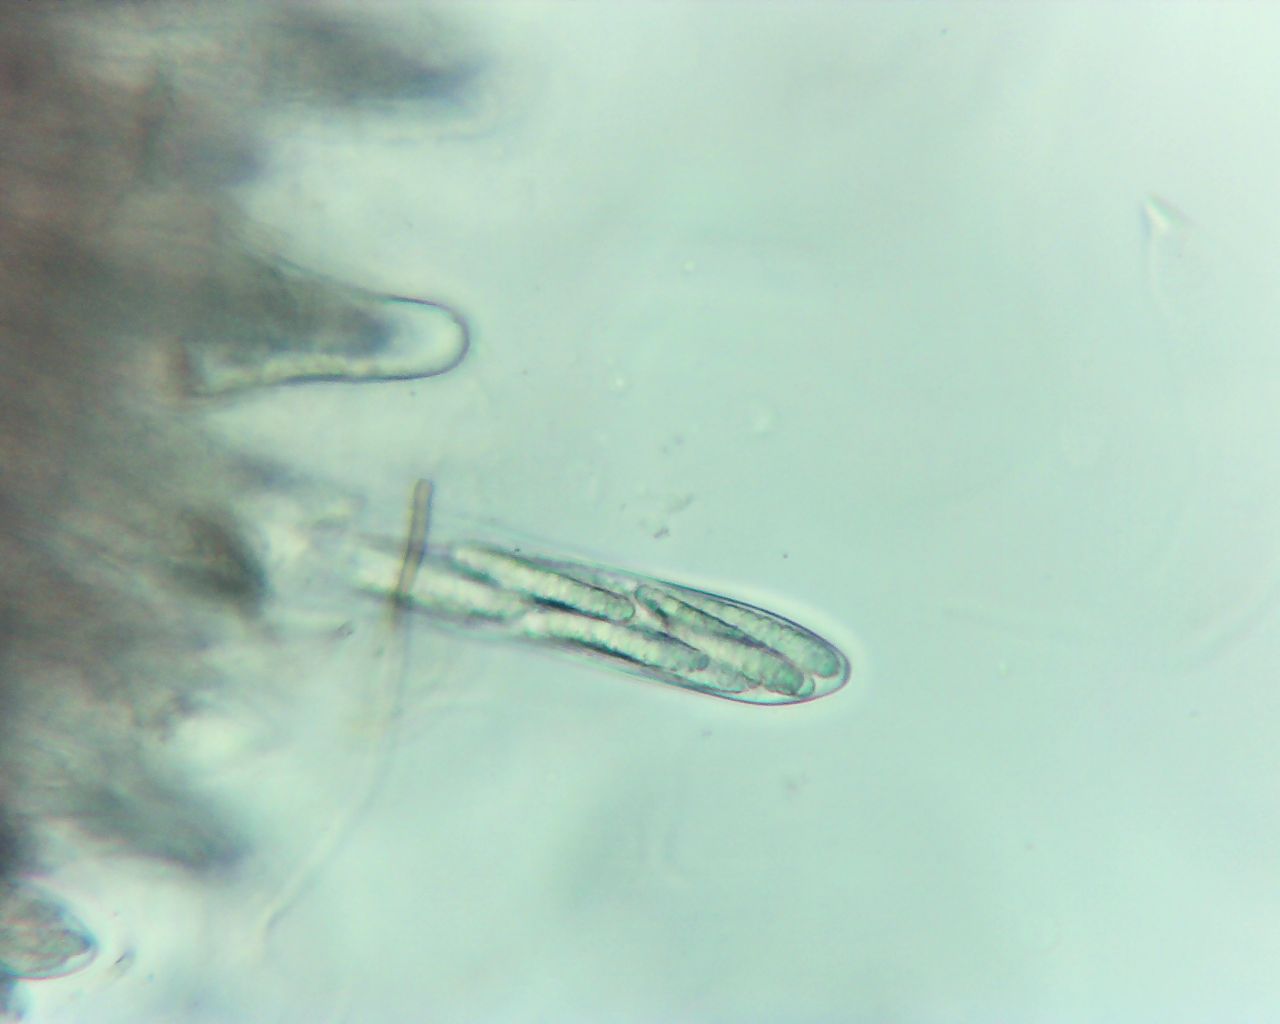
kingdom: Fungi
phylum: Ascomycota
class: Geoglossomycetes
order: Geoglossales
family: Geoglossaceae
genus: Sabuloglossum
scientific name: Sabuloglossum arenarium
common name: klit-jordtunge
